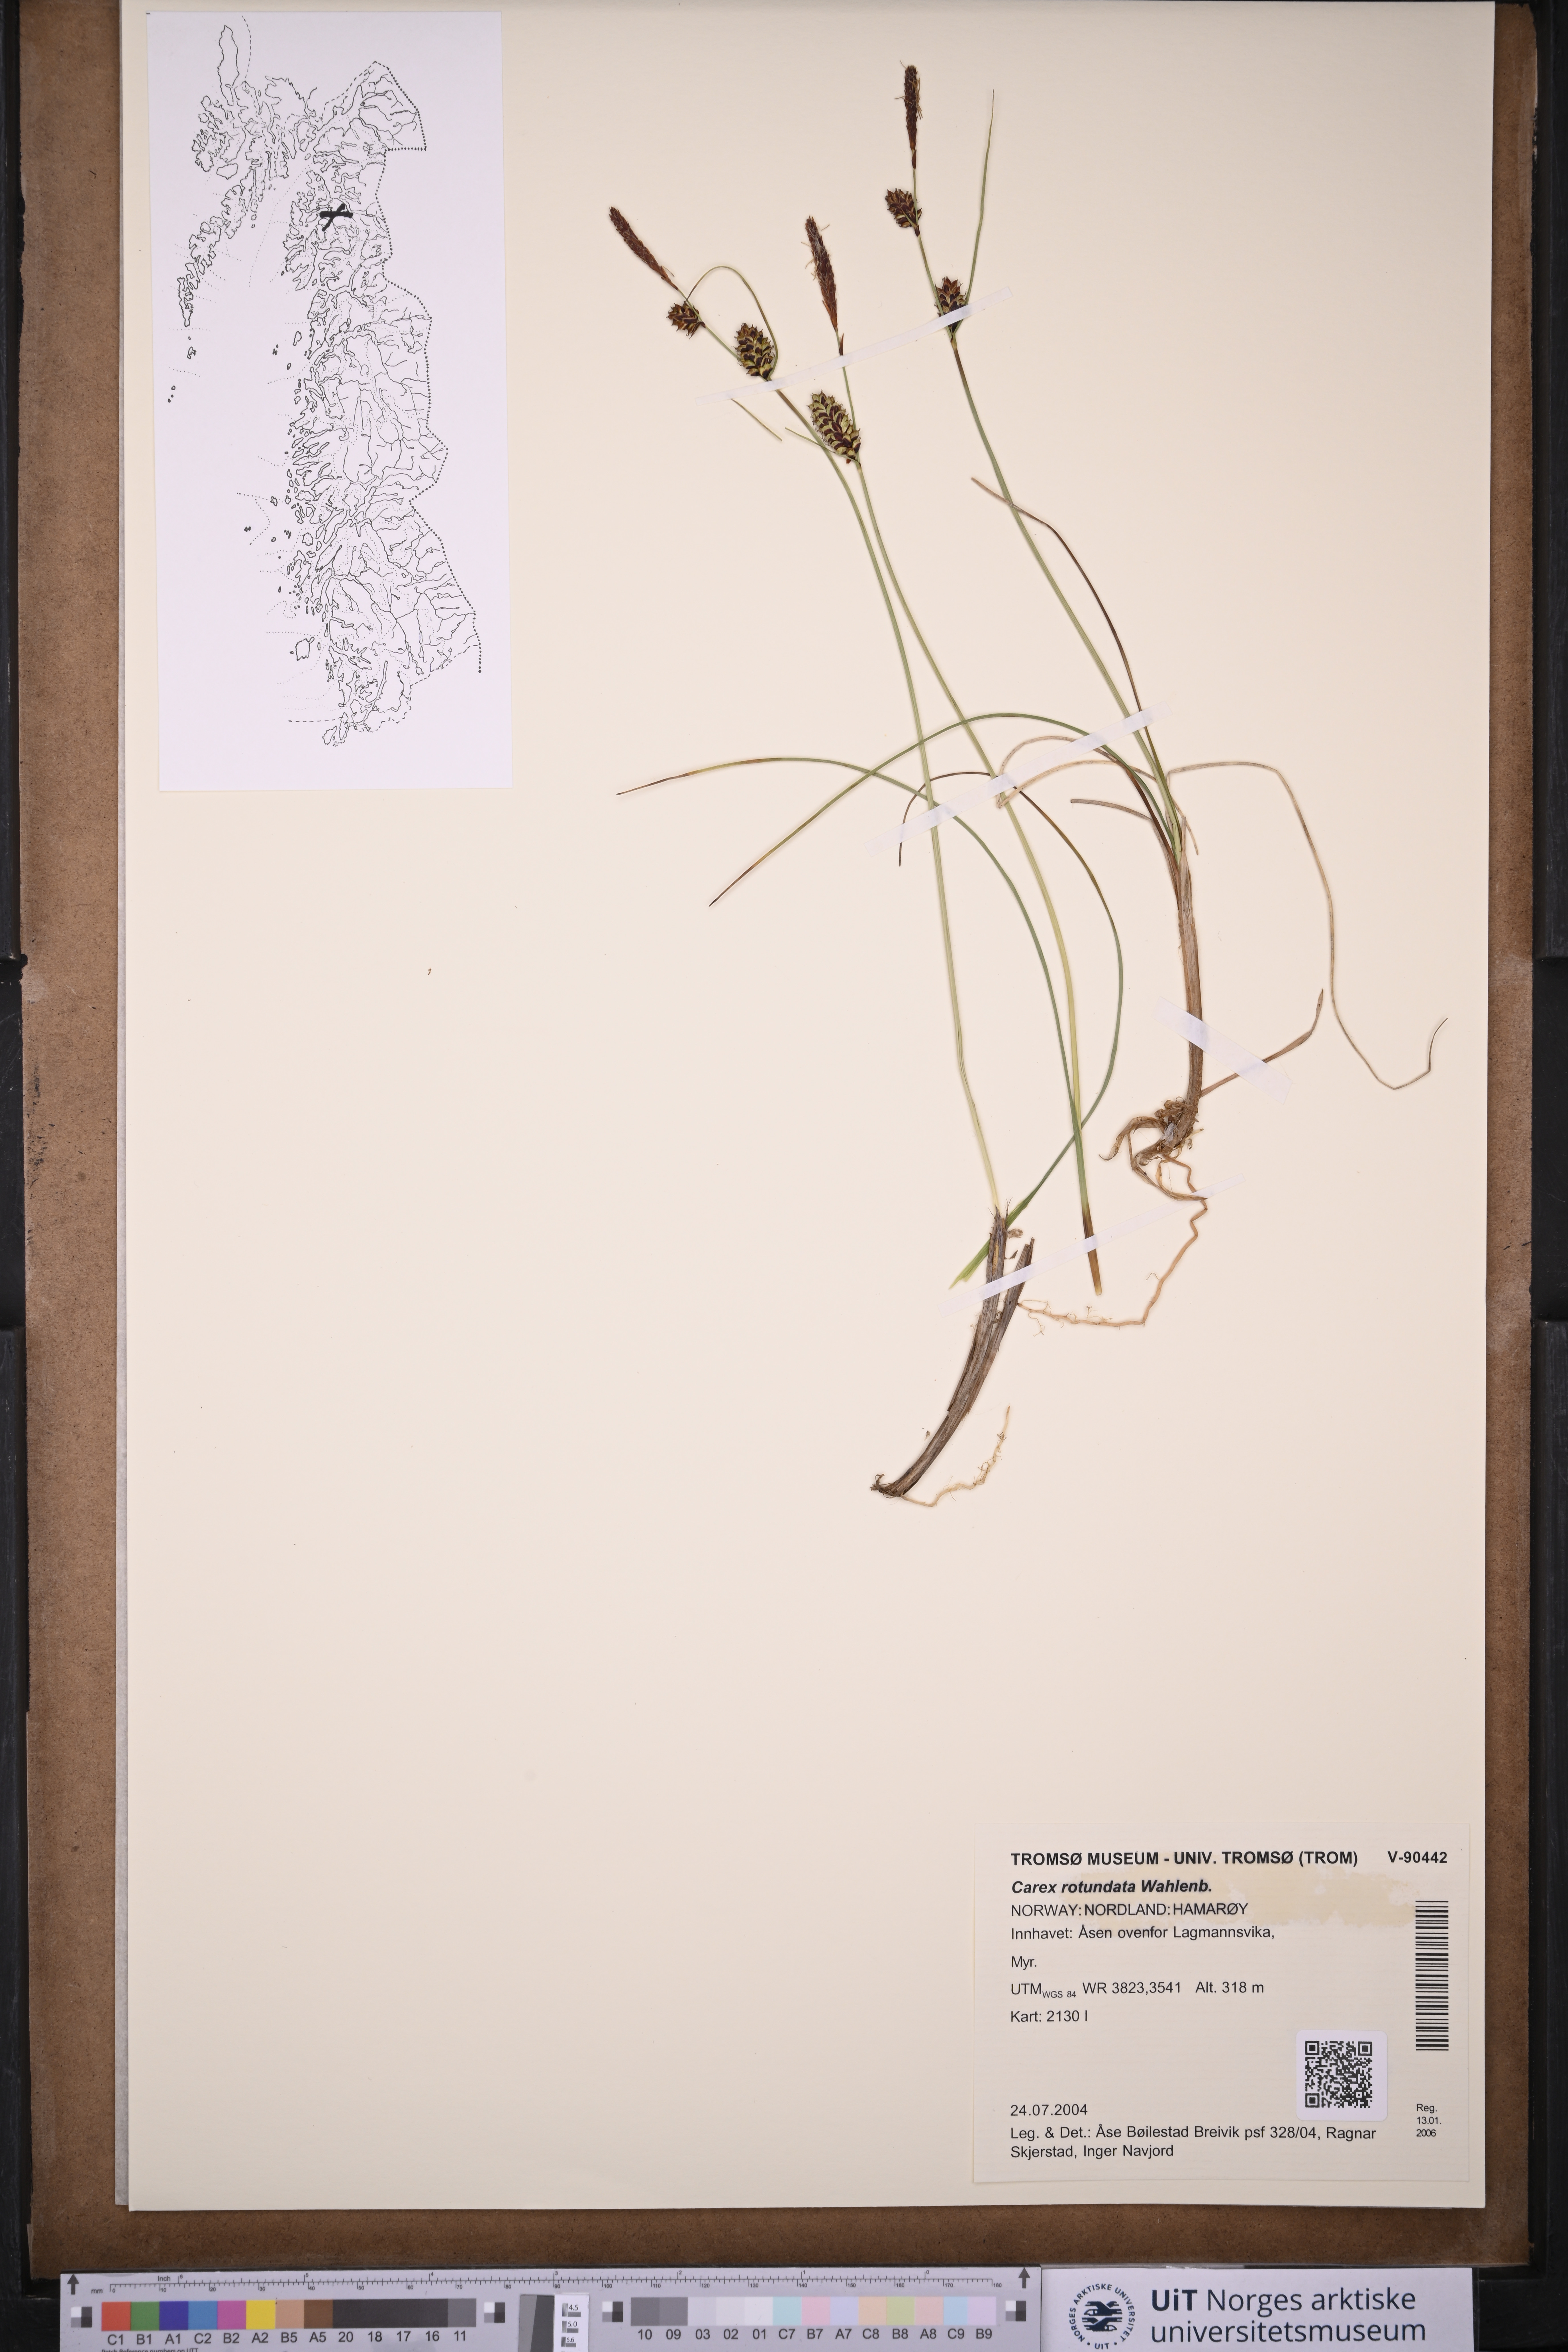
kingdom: Plantae
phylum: Tracheophyta
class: Liliopsida
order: Poales
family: Cyperaceae
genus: Carex
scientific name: Carex rotundata
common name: Round-fruited sedge
